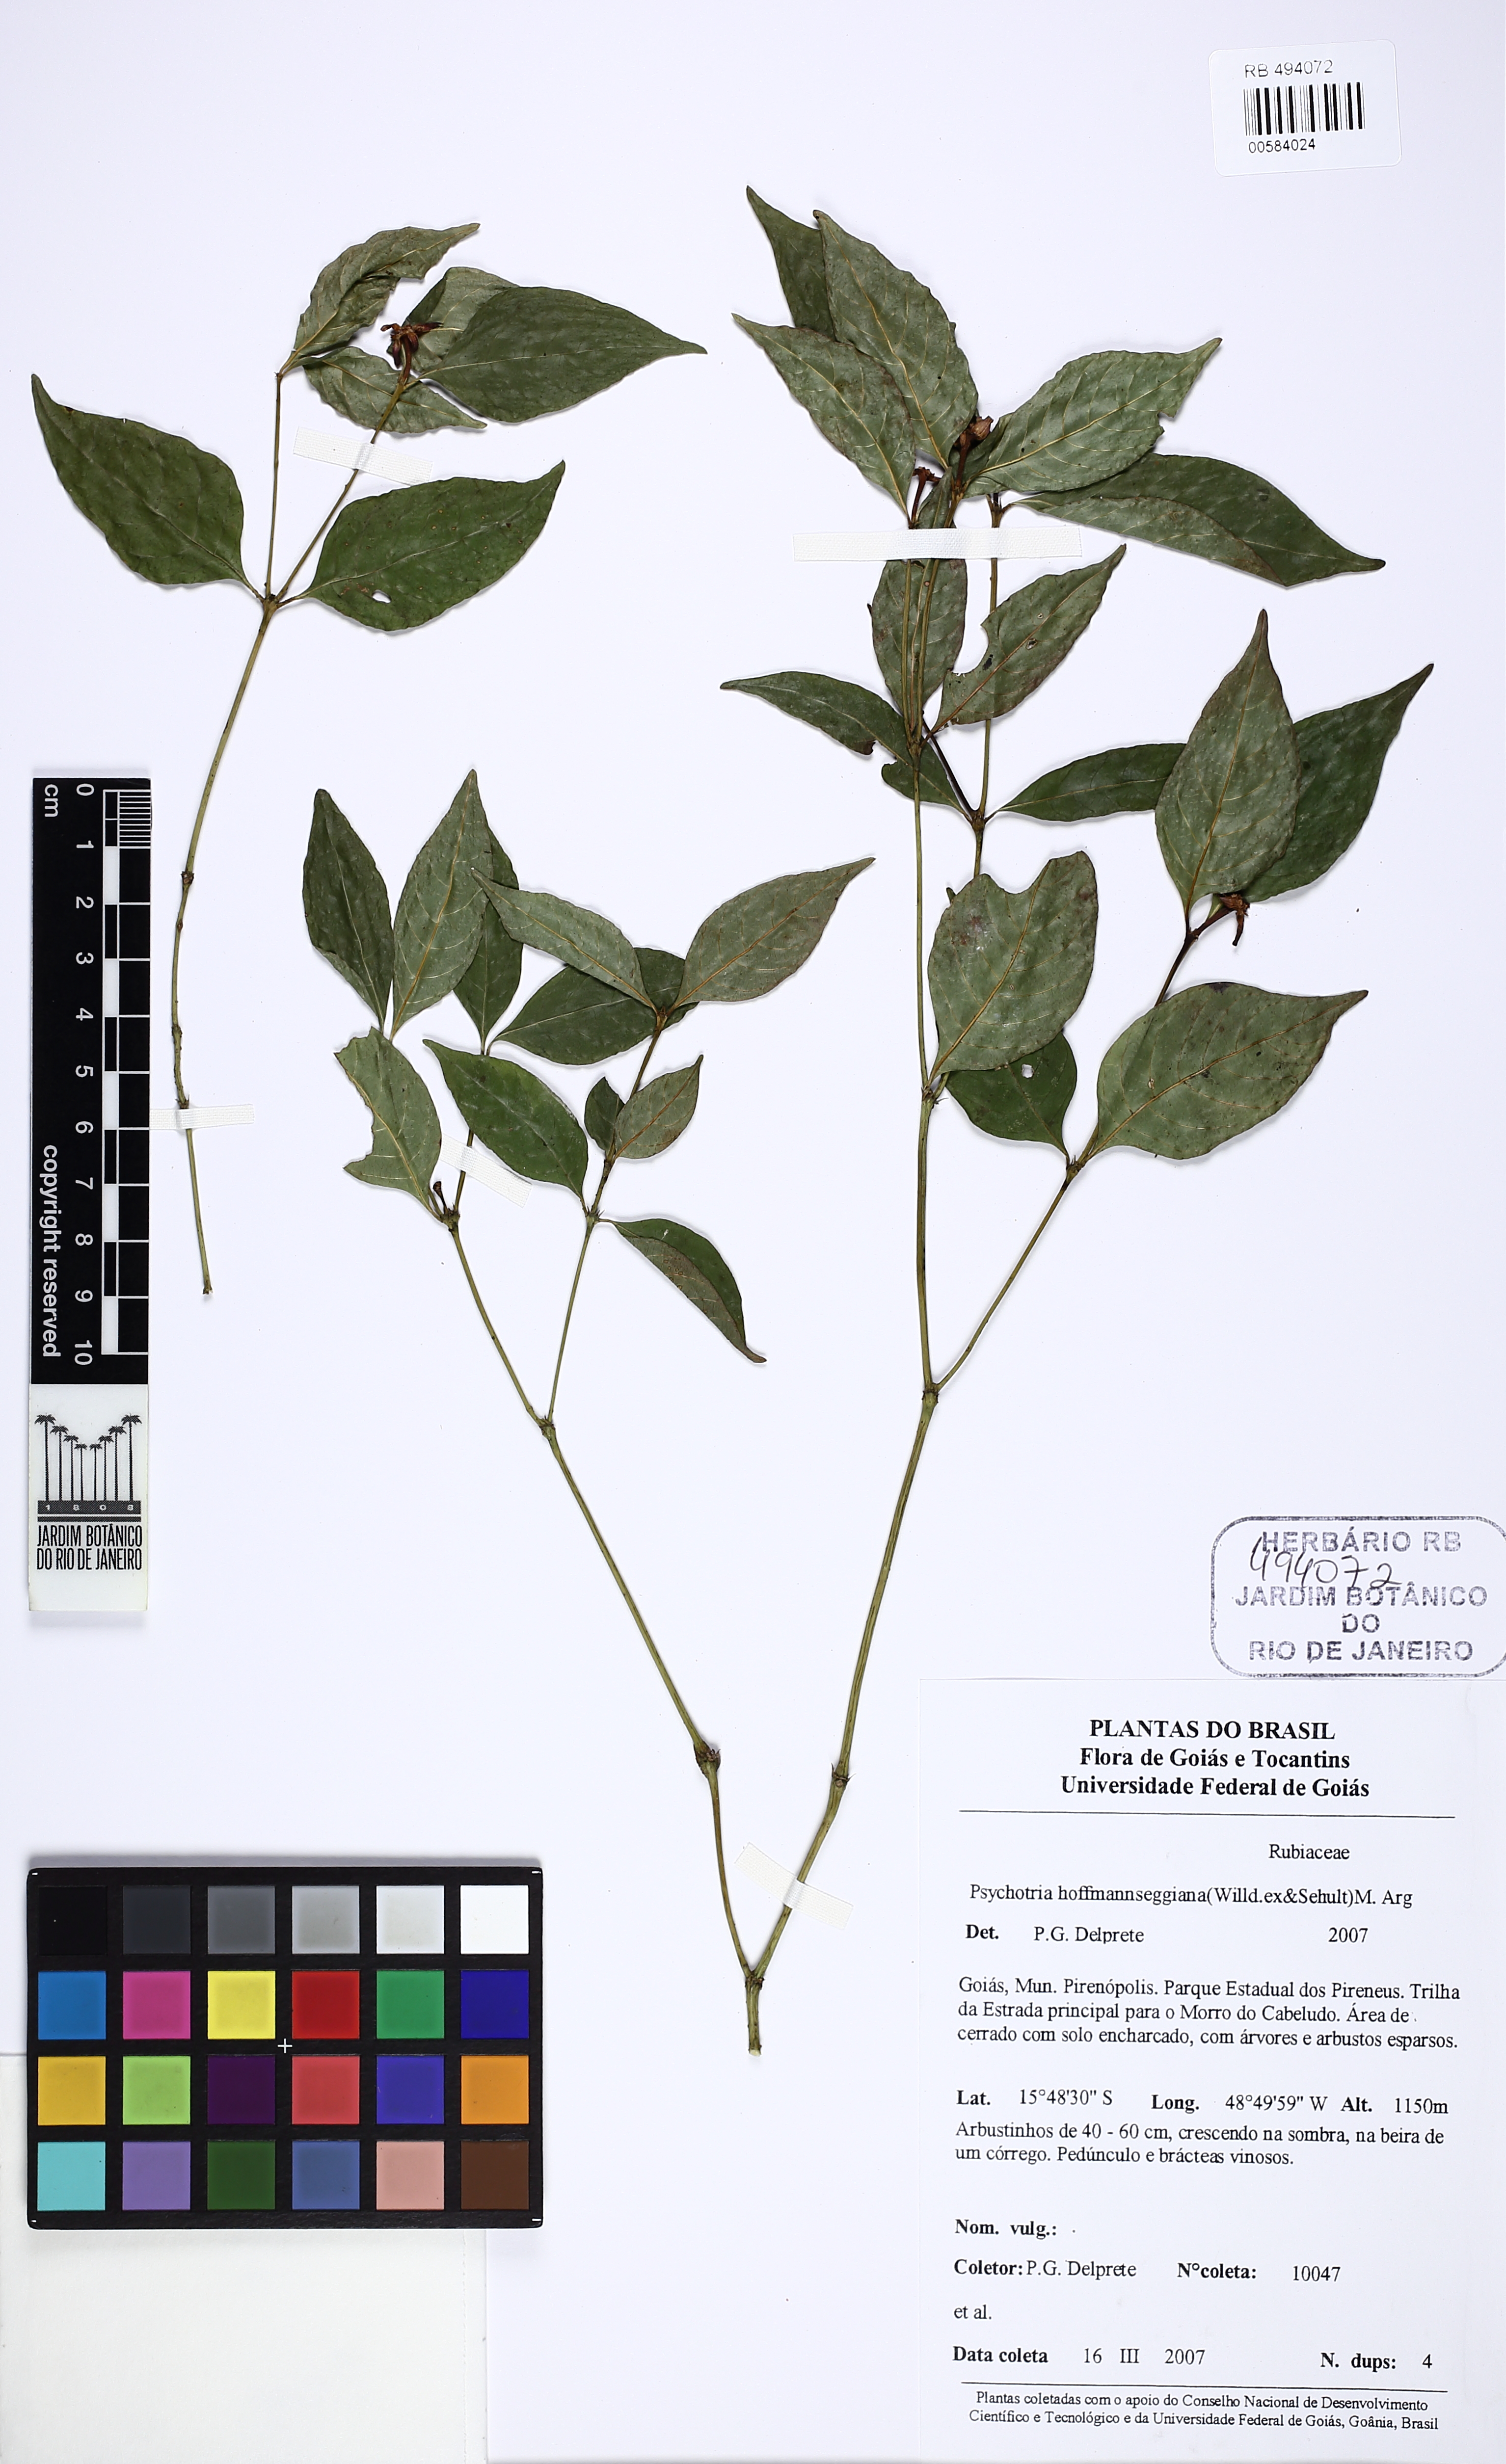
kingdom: Plantae
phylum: Tracheophyta
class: Magnoliopsida
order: Gentianales
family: Rubiaceae
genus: Palicourea
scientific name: Palicourea hoffmannseggiana
